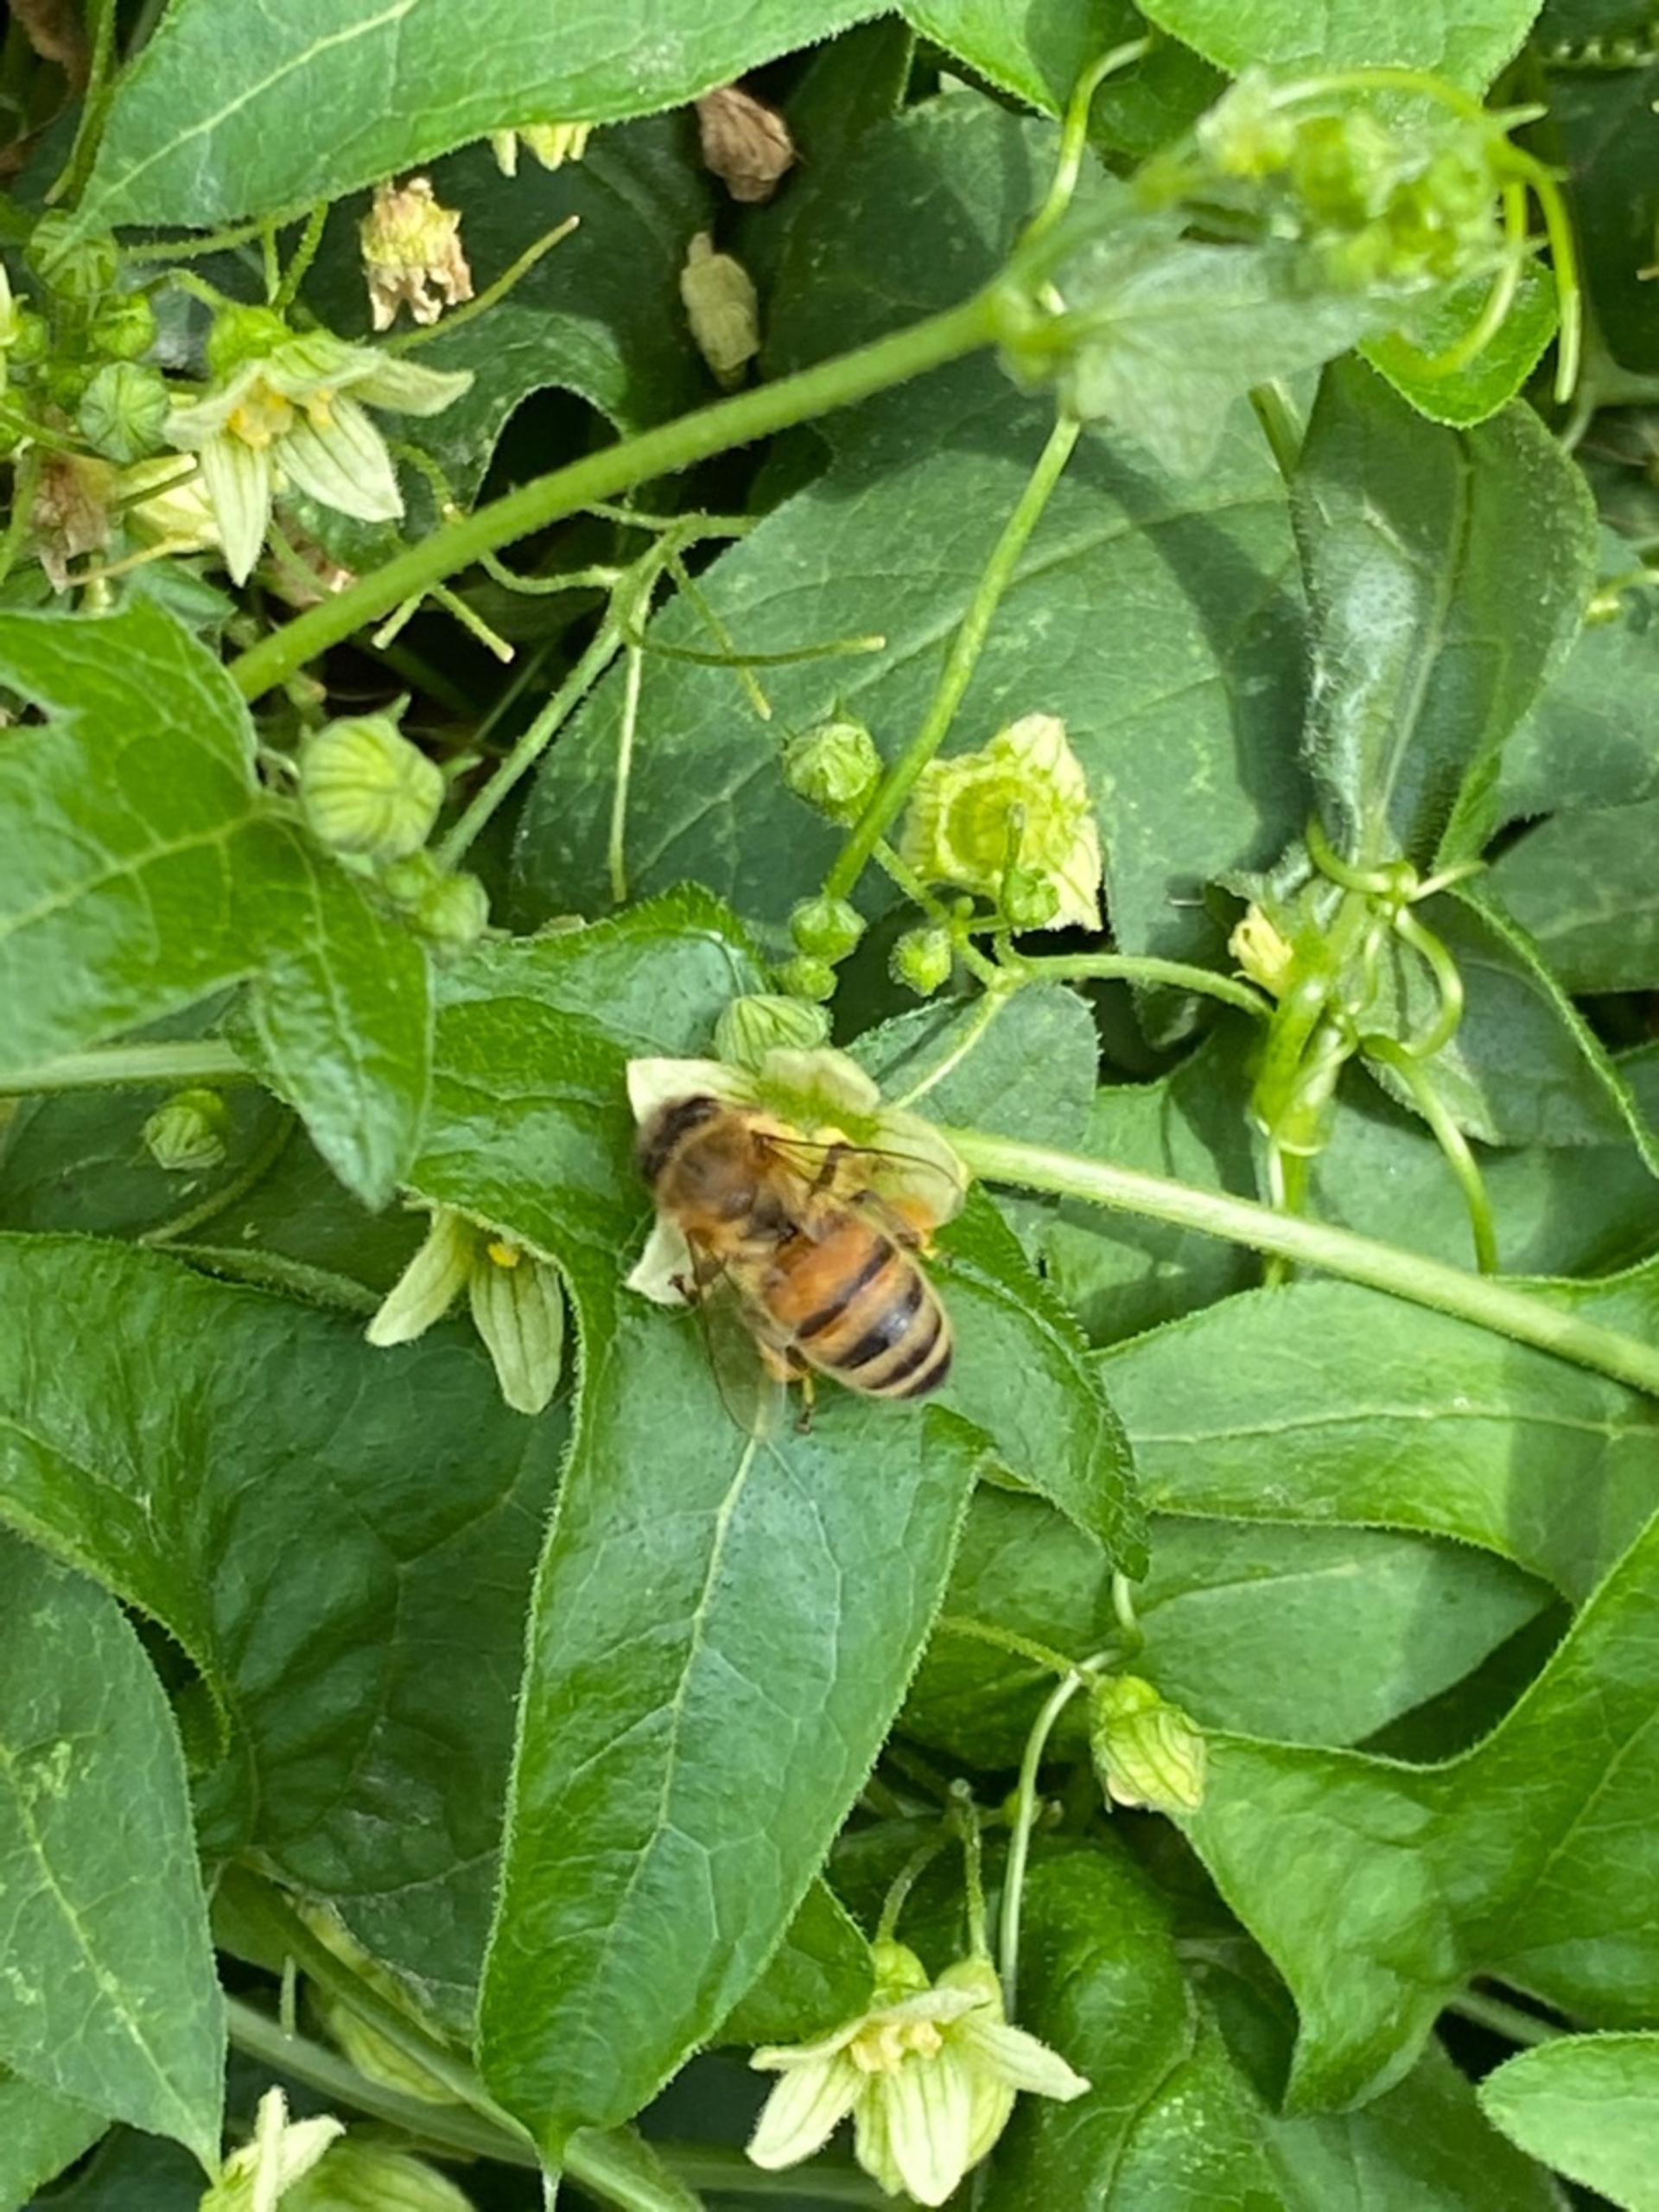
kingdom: Animalia
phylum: Arthropoda
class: Insecta
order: Hymenoptera
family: Apidae
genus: Apis
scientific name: Apis
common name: Honningbier
